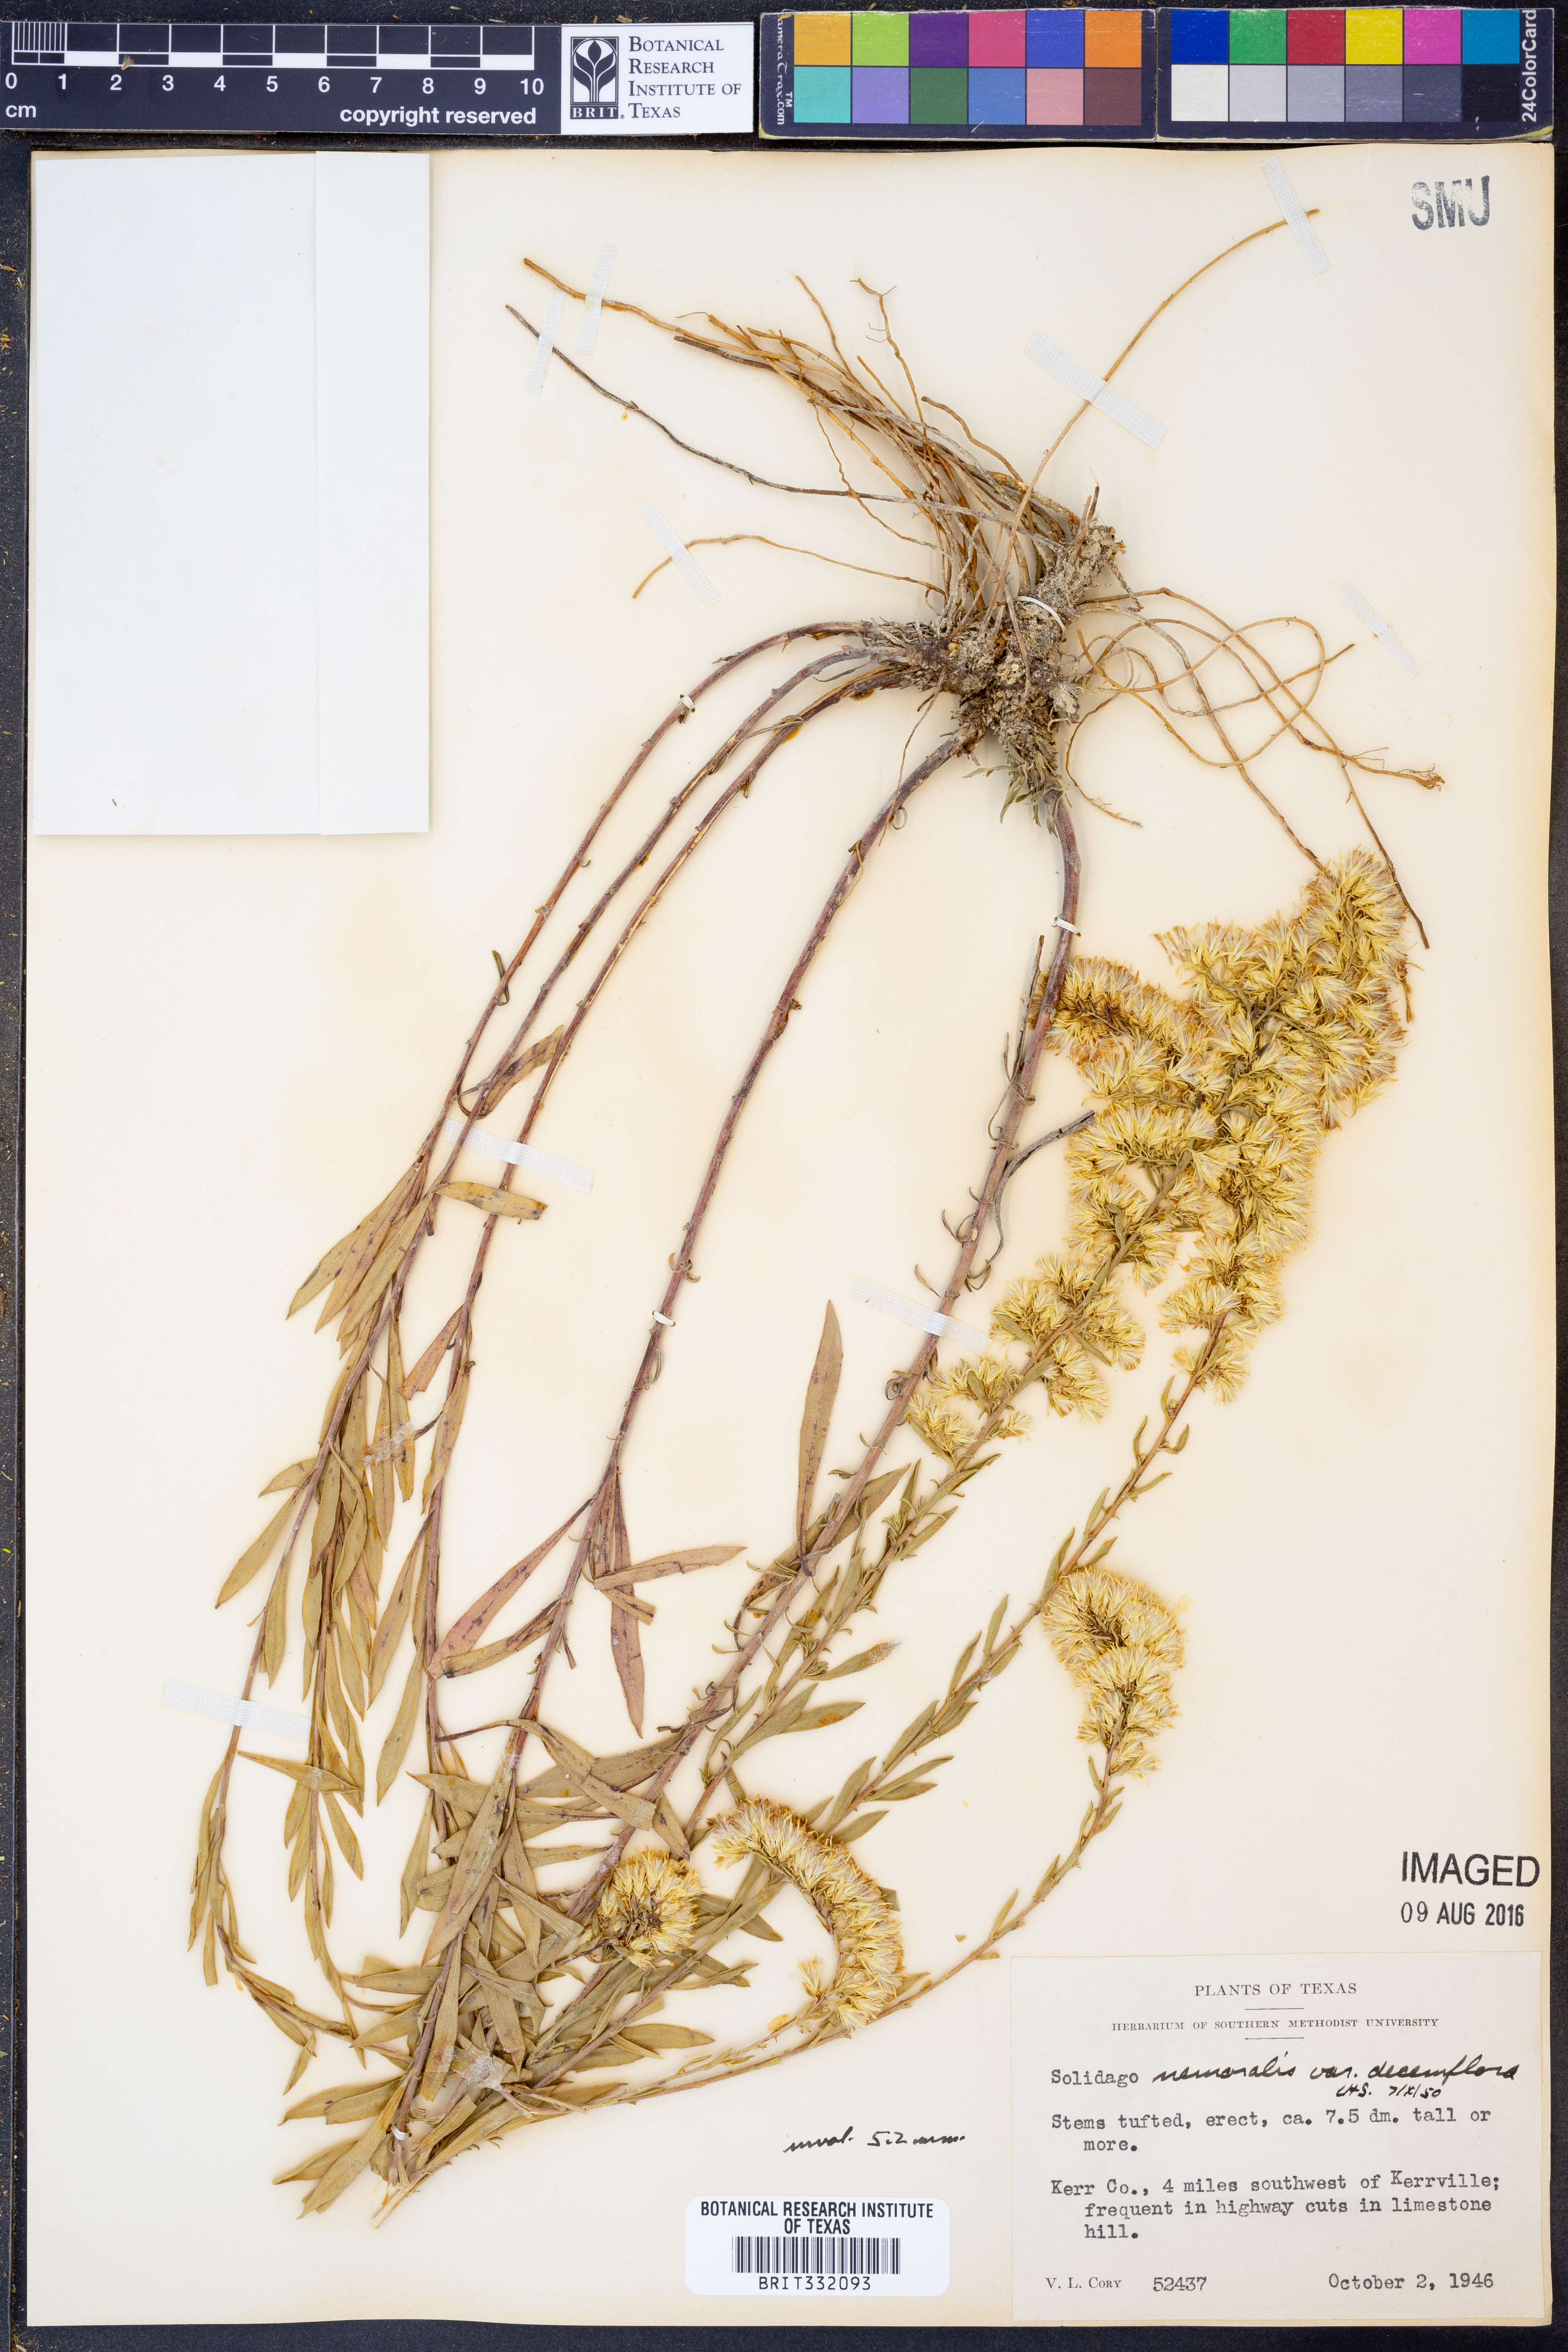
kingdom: Plantae
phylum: Tracheophyta
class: Magnoliopsida
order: Asterales
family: Asteraceae
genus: Solidago
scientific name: Solidago decemflora
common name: Prairie grey-stemmed goldenrod
